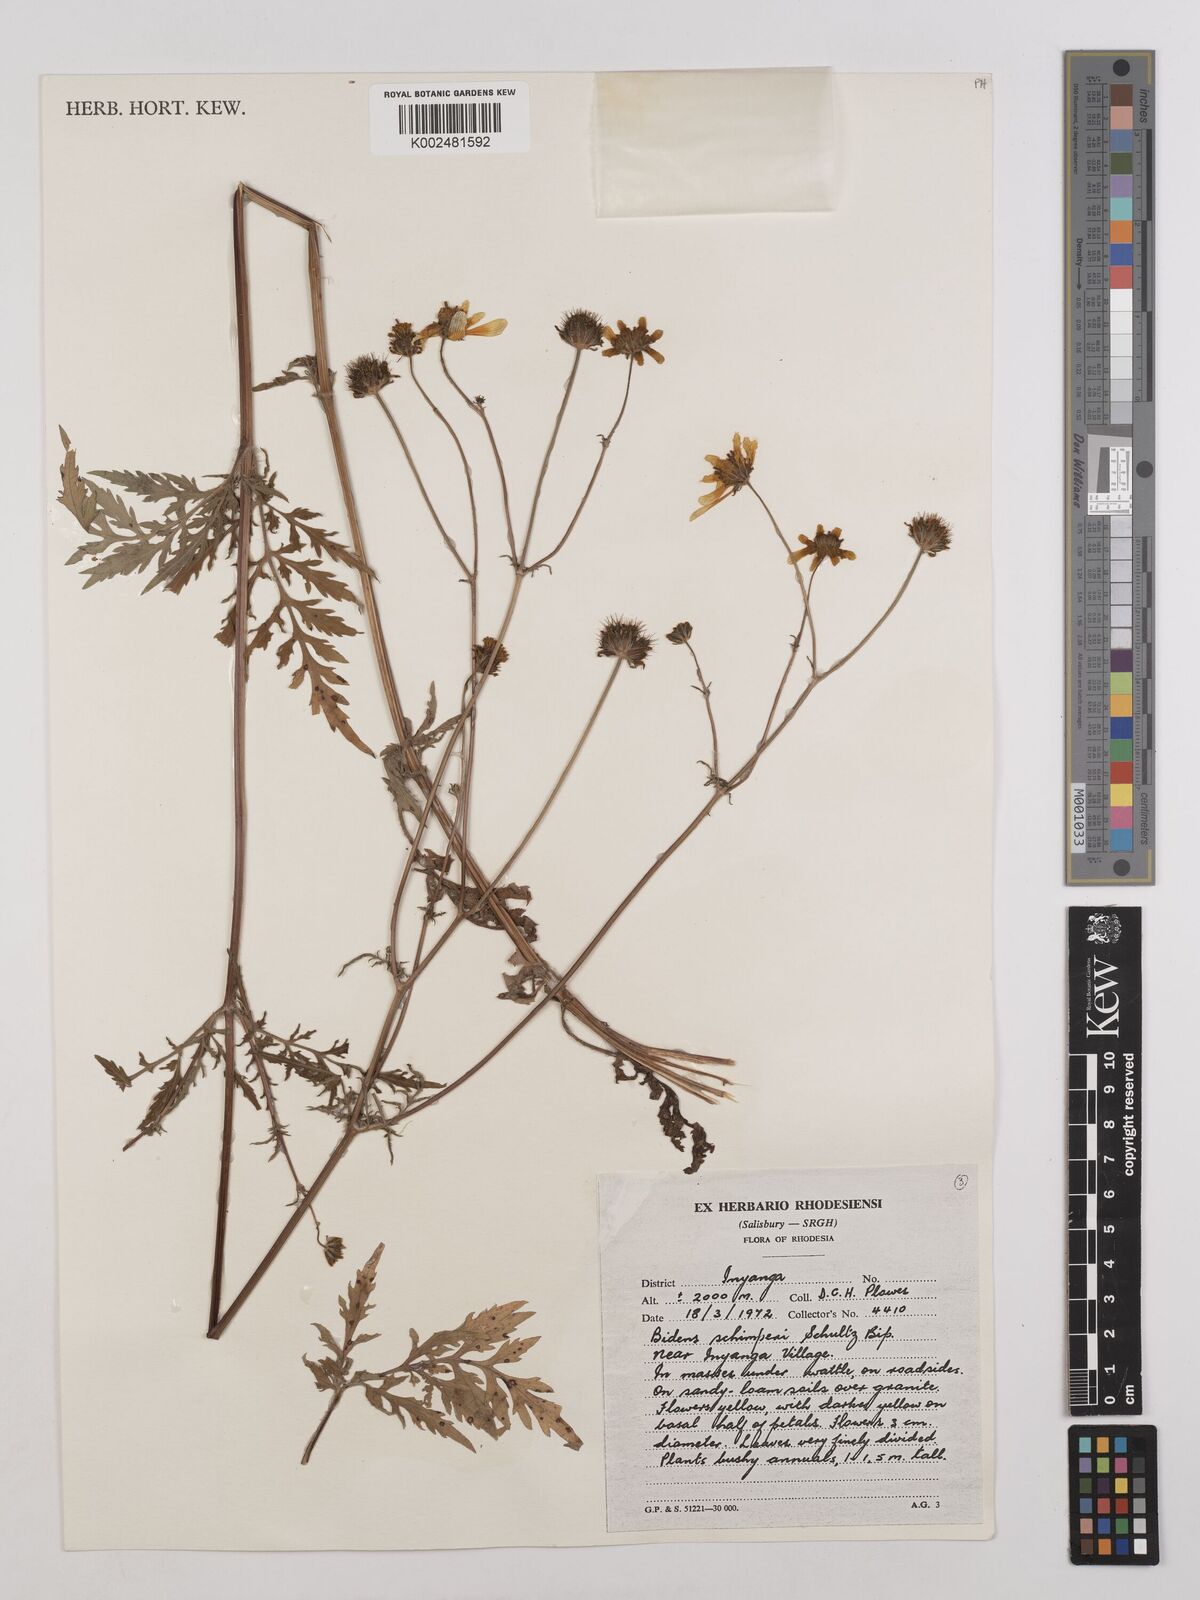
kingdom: Plantae
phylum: Tracheophyta
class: Magnoliopsida
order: Asterales
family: Asteraceae
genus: Bidens
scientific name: Bidens schimperi
